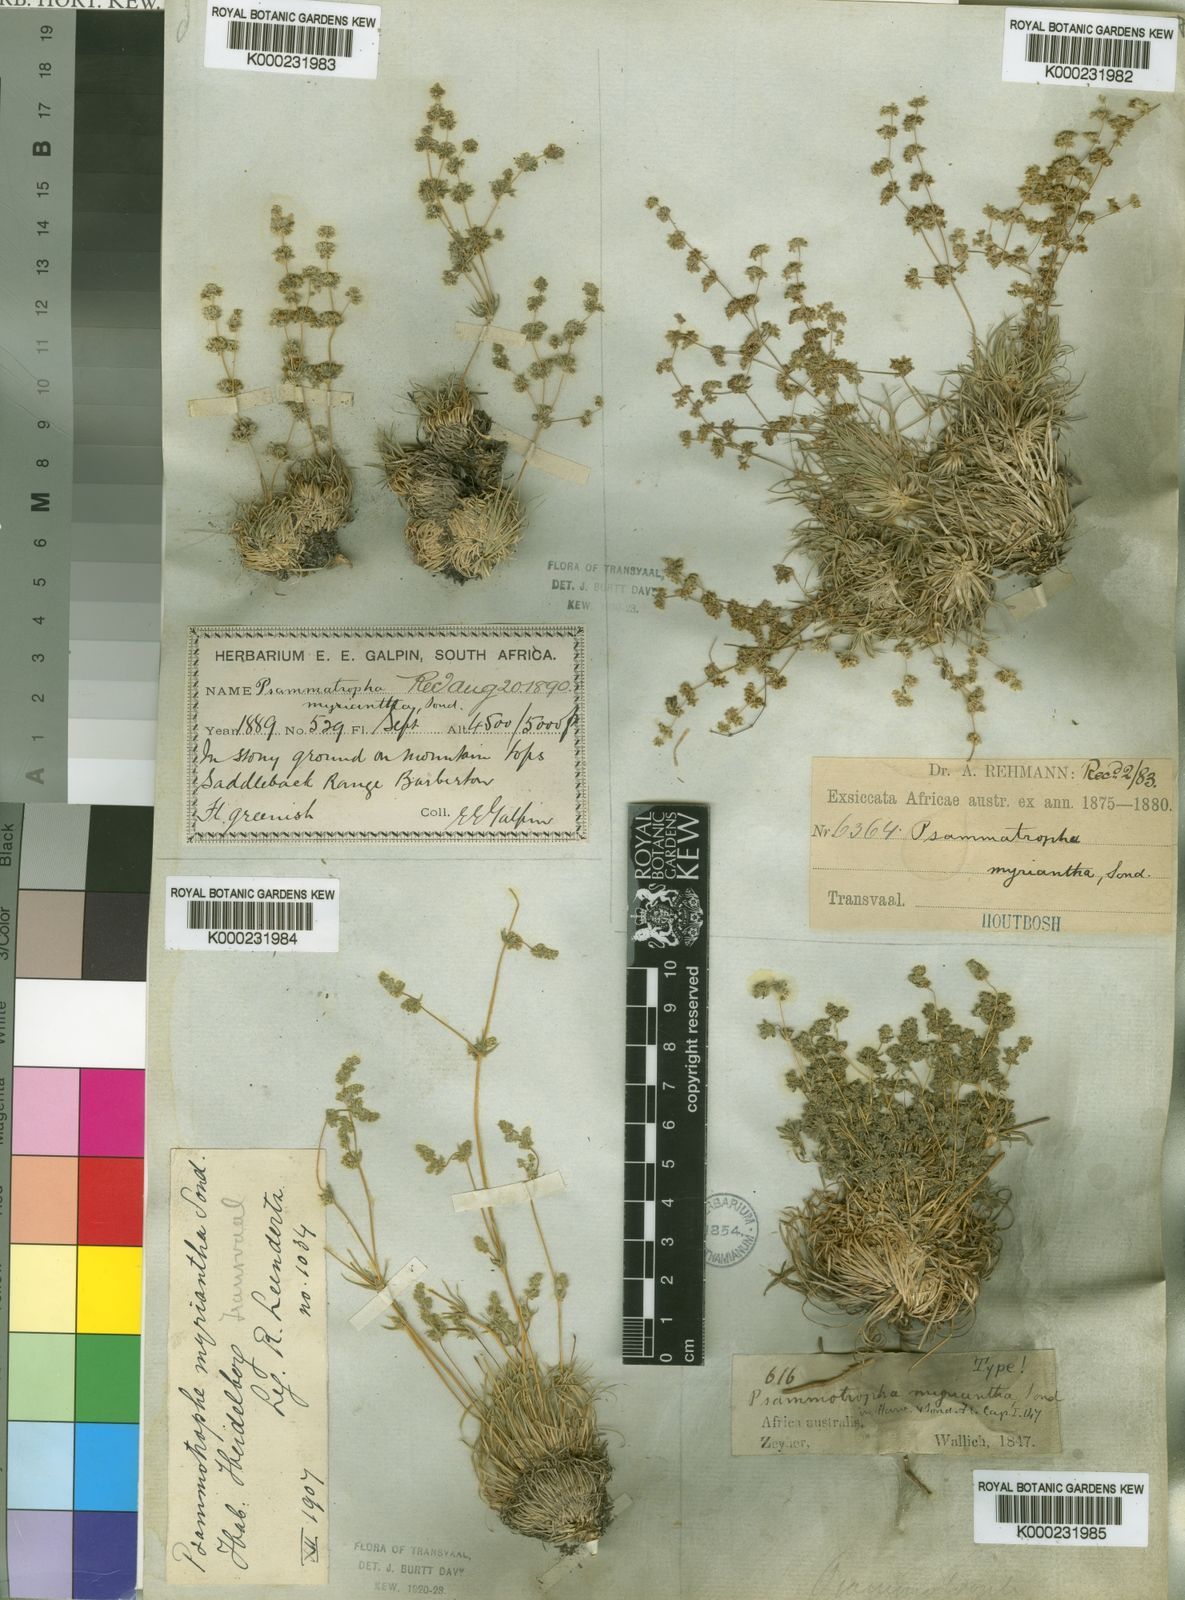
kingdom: Plantae
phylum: Tracheophyta
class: Magnoliopsida
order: Caryophyllales
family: Molluginaceae
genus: Psammotropha
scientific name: Psammotropha myriantha
